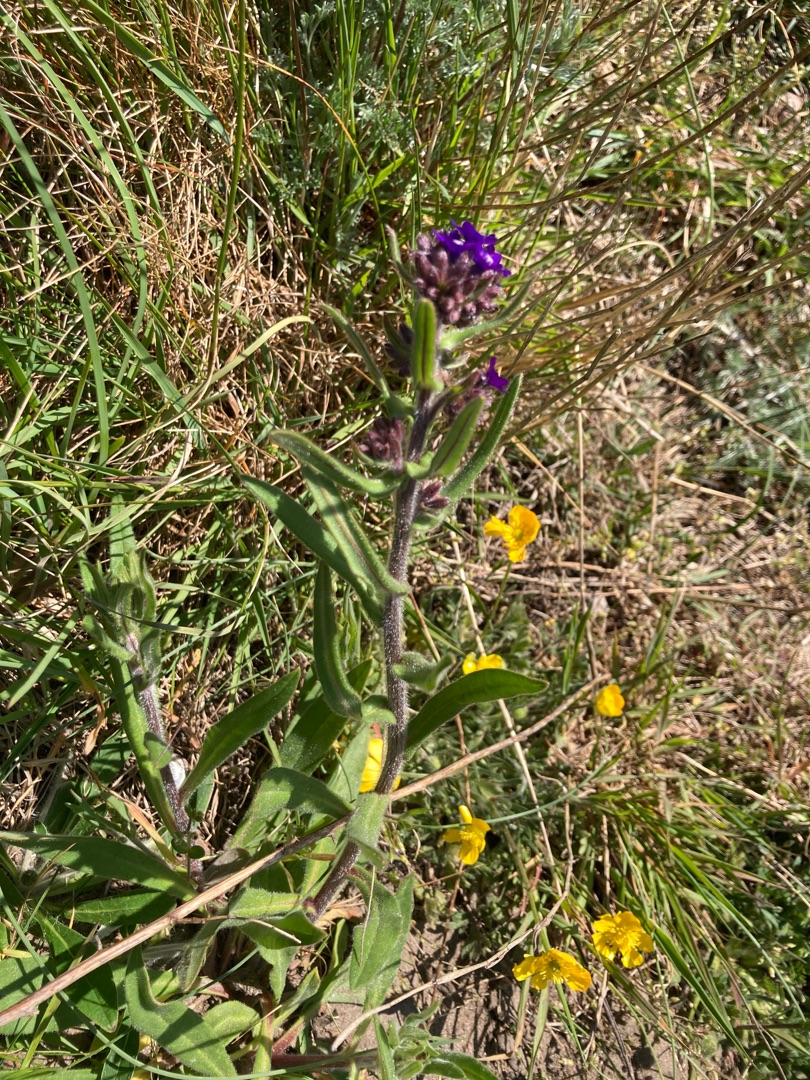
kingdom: Plantae
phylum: Tracheophyta
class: Magnoliopsida
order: Boraginales
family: Boraginaceae
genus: Anchusa
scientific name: Anchusa officinalis
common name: Læge-oksetunge
